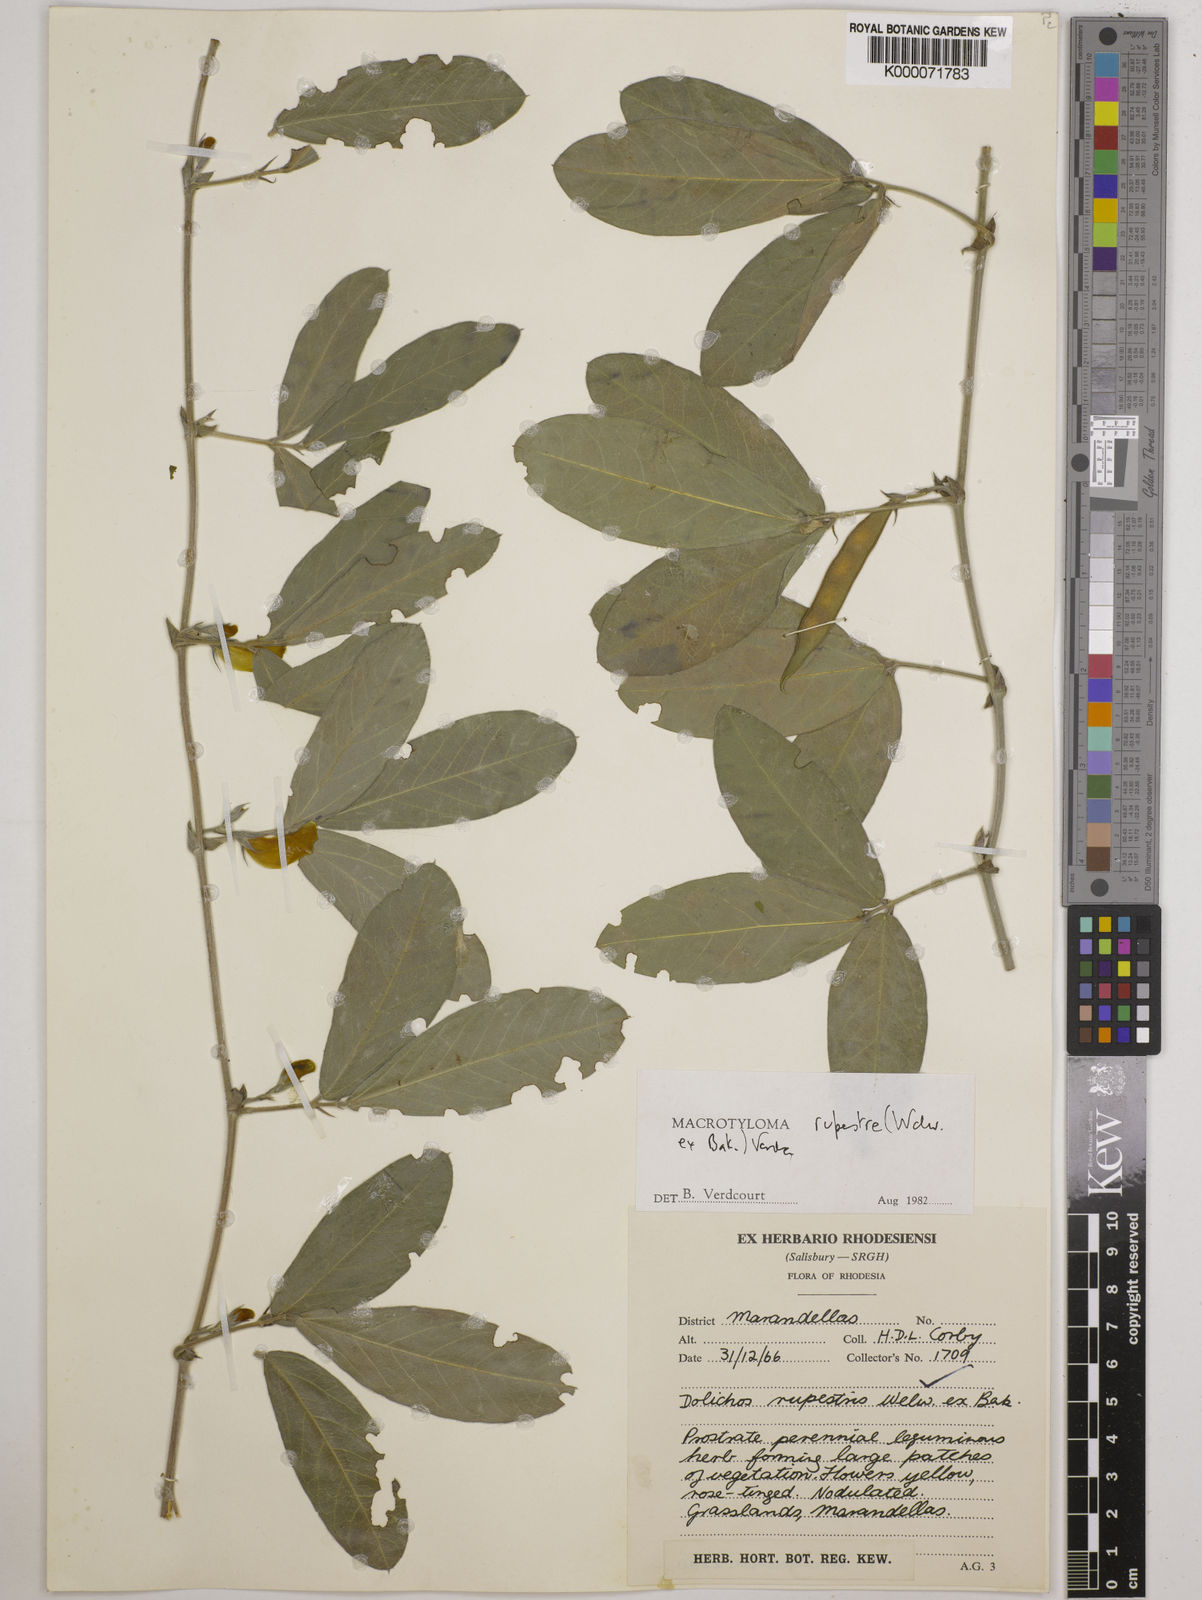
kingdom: Plantae
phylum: Tracheophyta
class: Magnoliopsida
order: Fabales
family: Fabaceae
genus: Macrotyloma
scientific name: Macrotyloma rupestre
